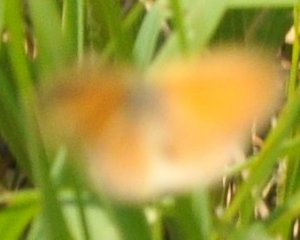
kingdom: Animalia
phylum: Arthropoda
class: Insecta
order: Lepidoptera
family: Nymphalidae
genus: Coenonympha
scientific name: Coenonympha tullia
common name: Large Heath
